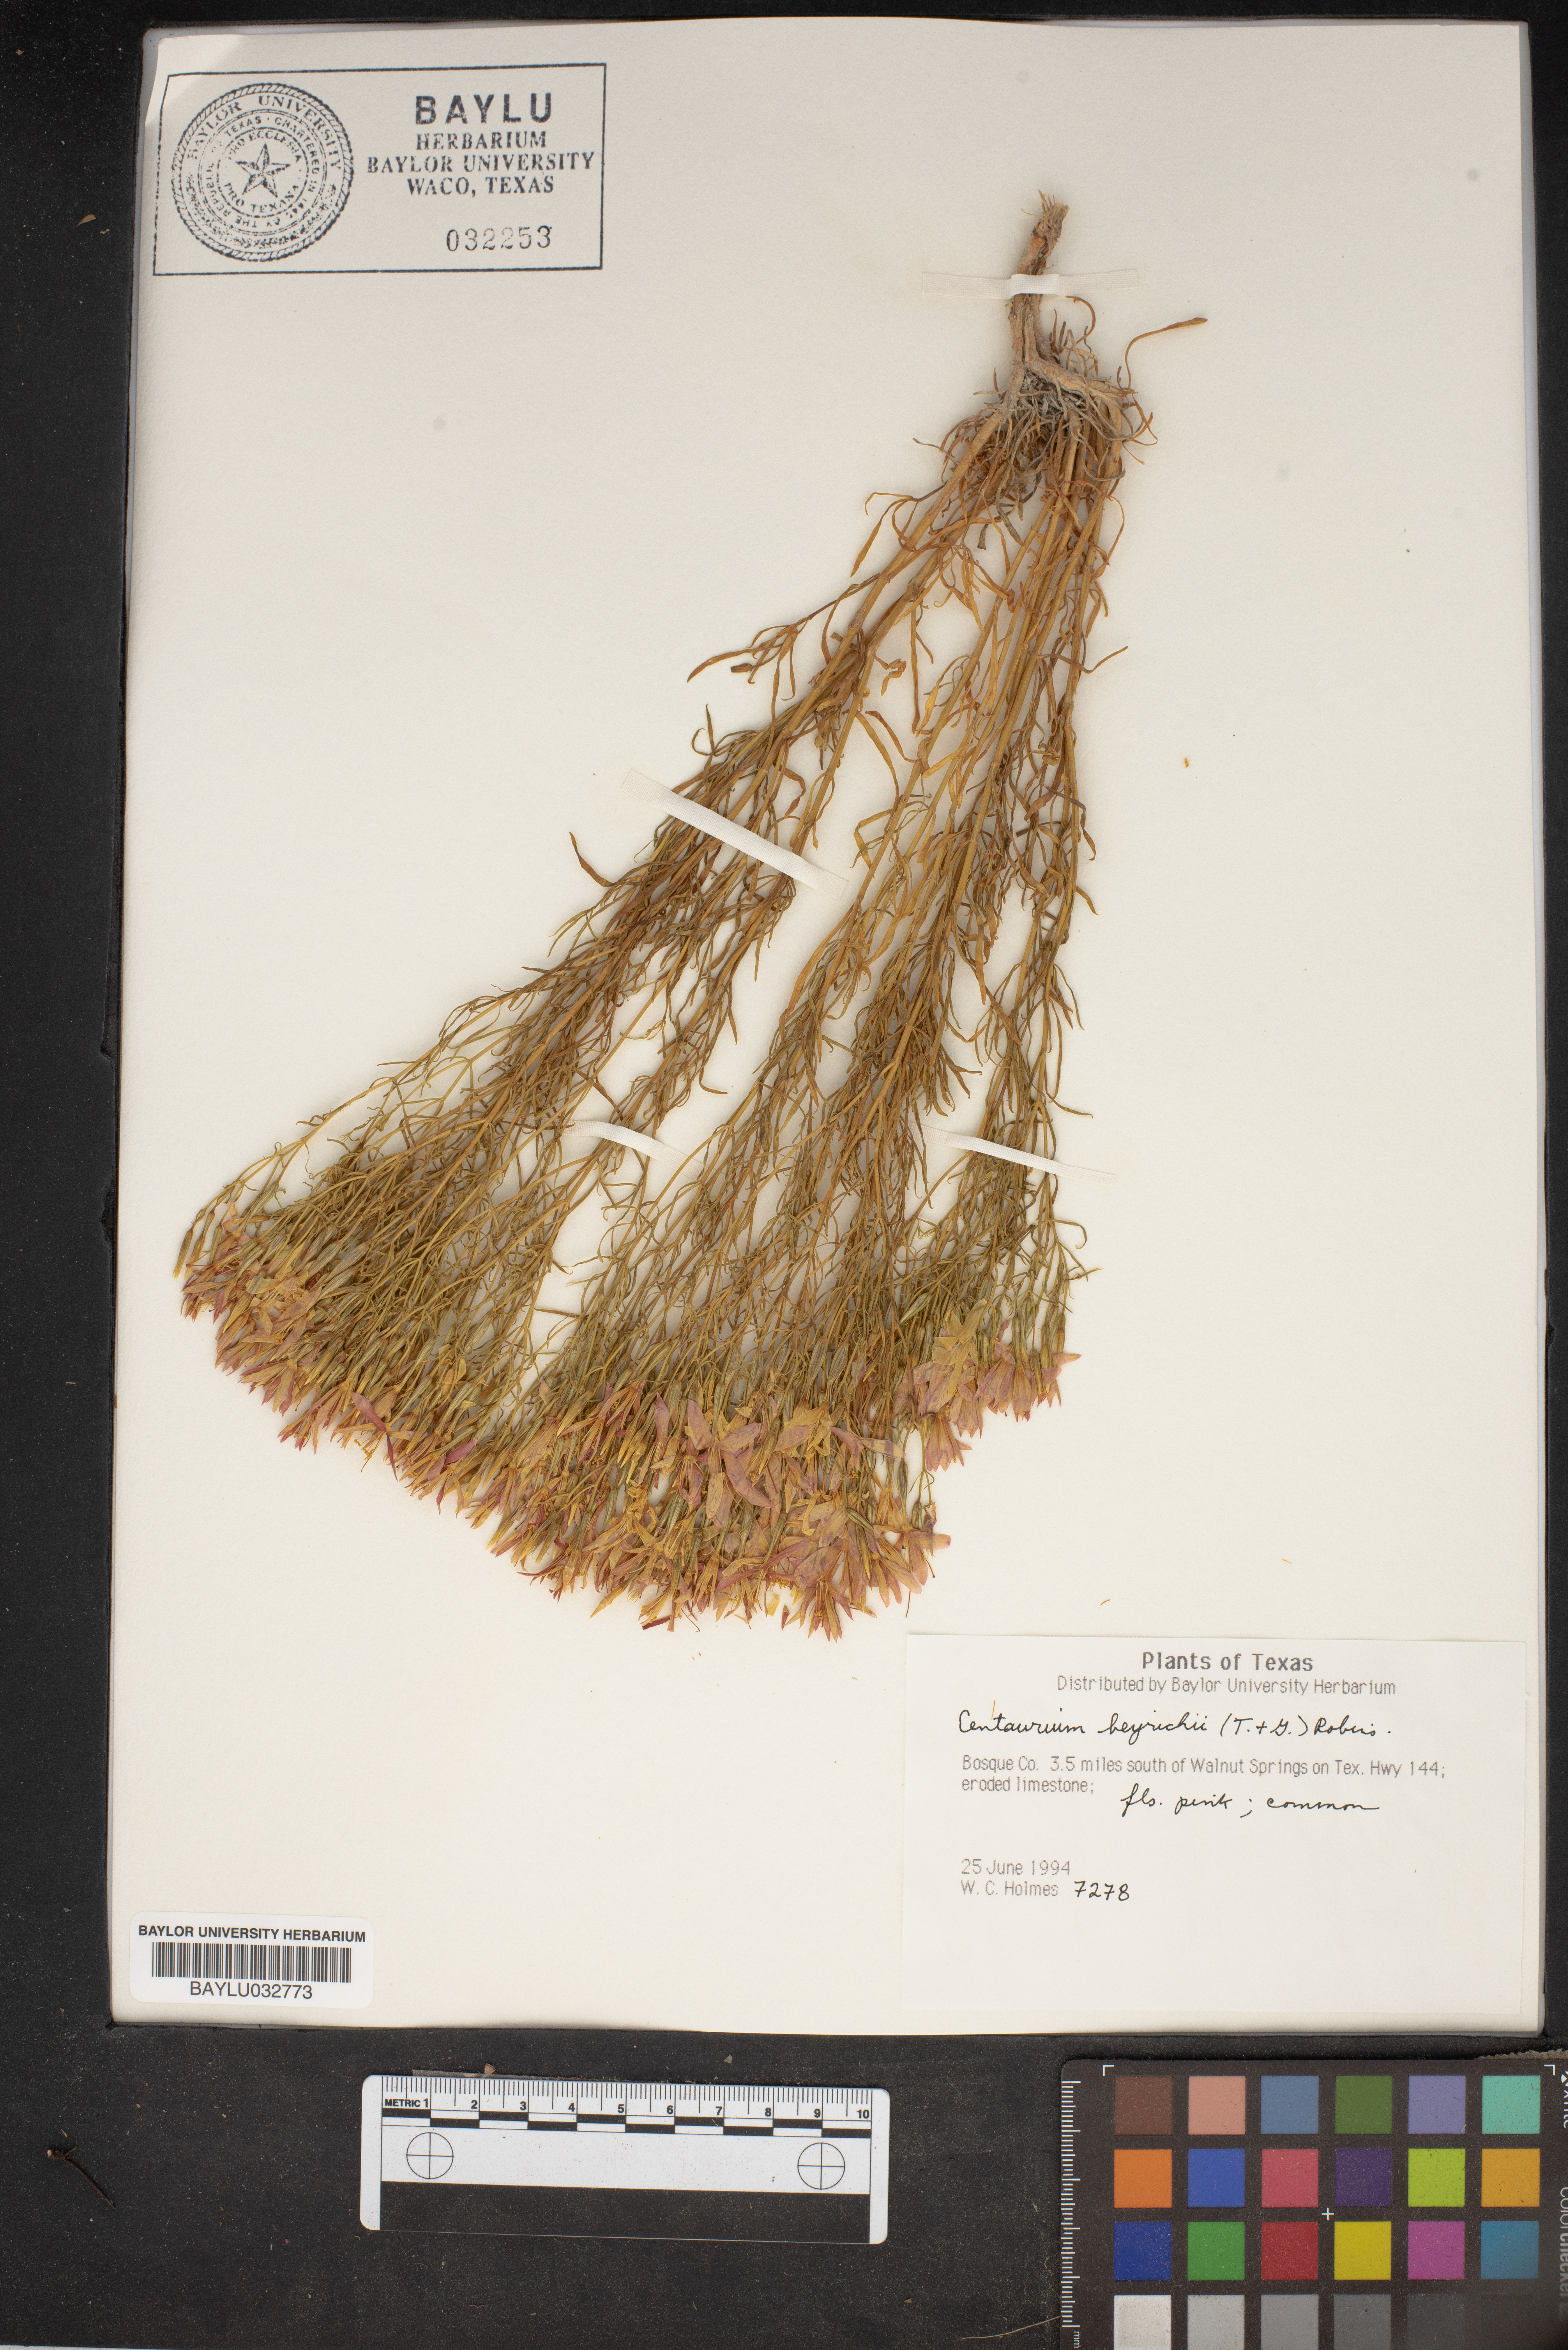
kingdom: Plantae
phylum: Tracheophyta
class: Magnoliopsida
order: Gentianales
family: Gentianaceae
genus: Zeltnera
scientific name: Zeltnera beyrichii
